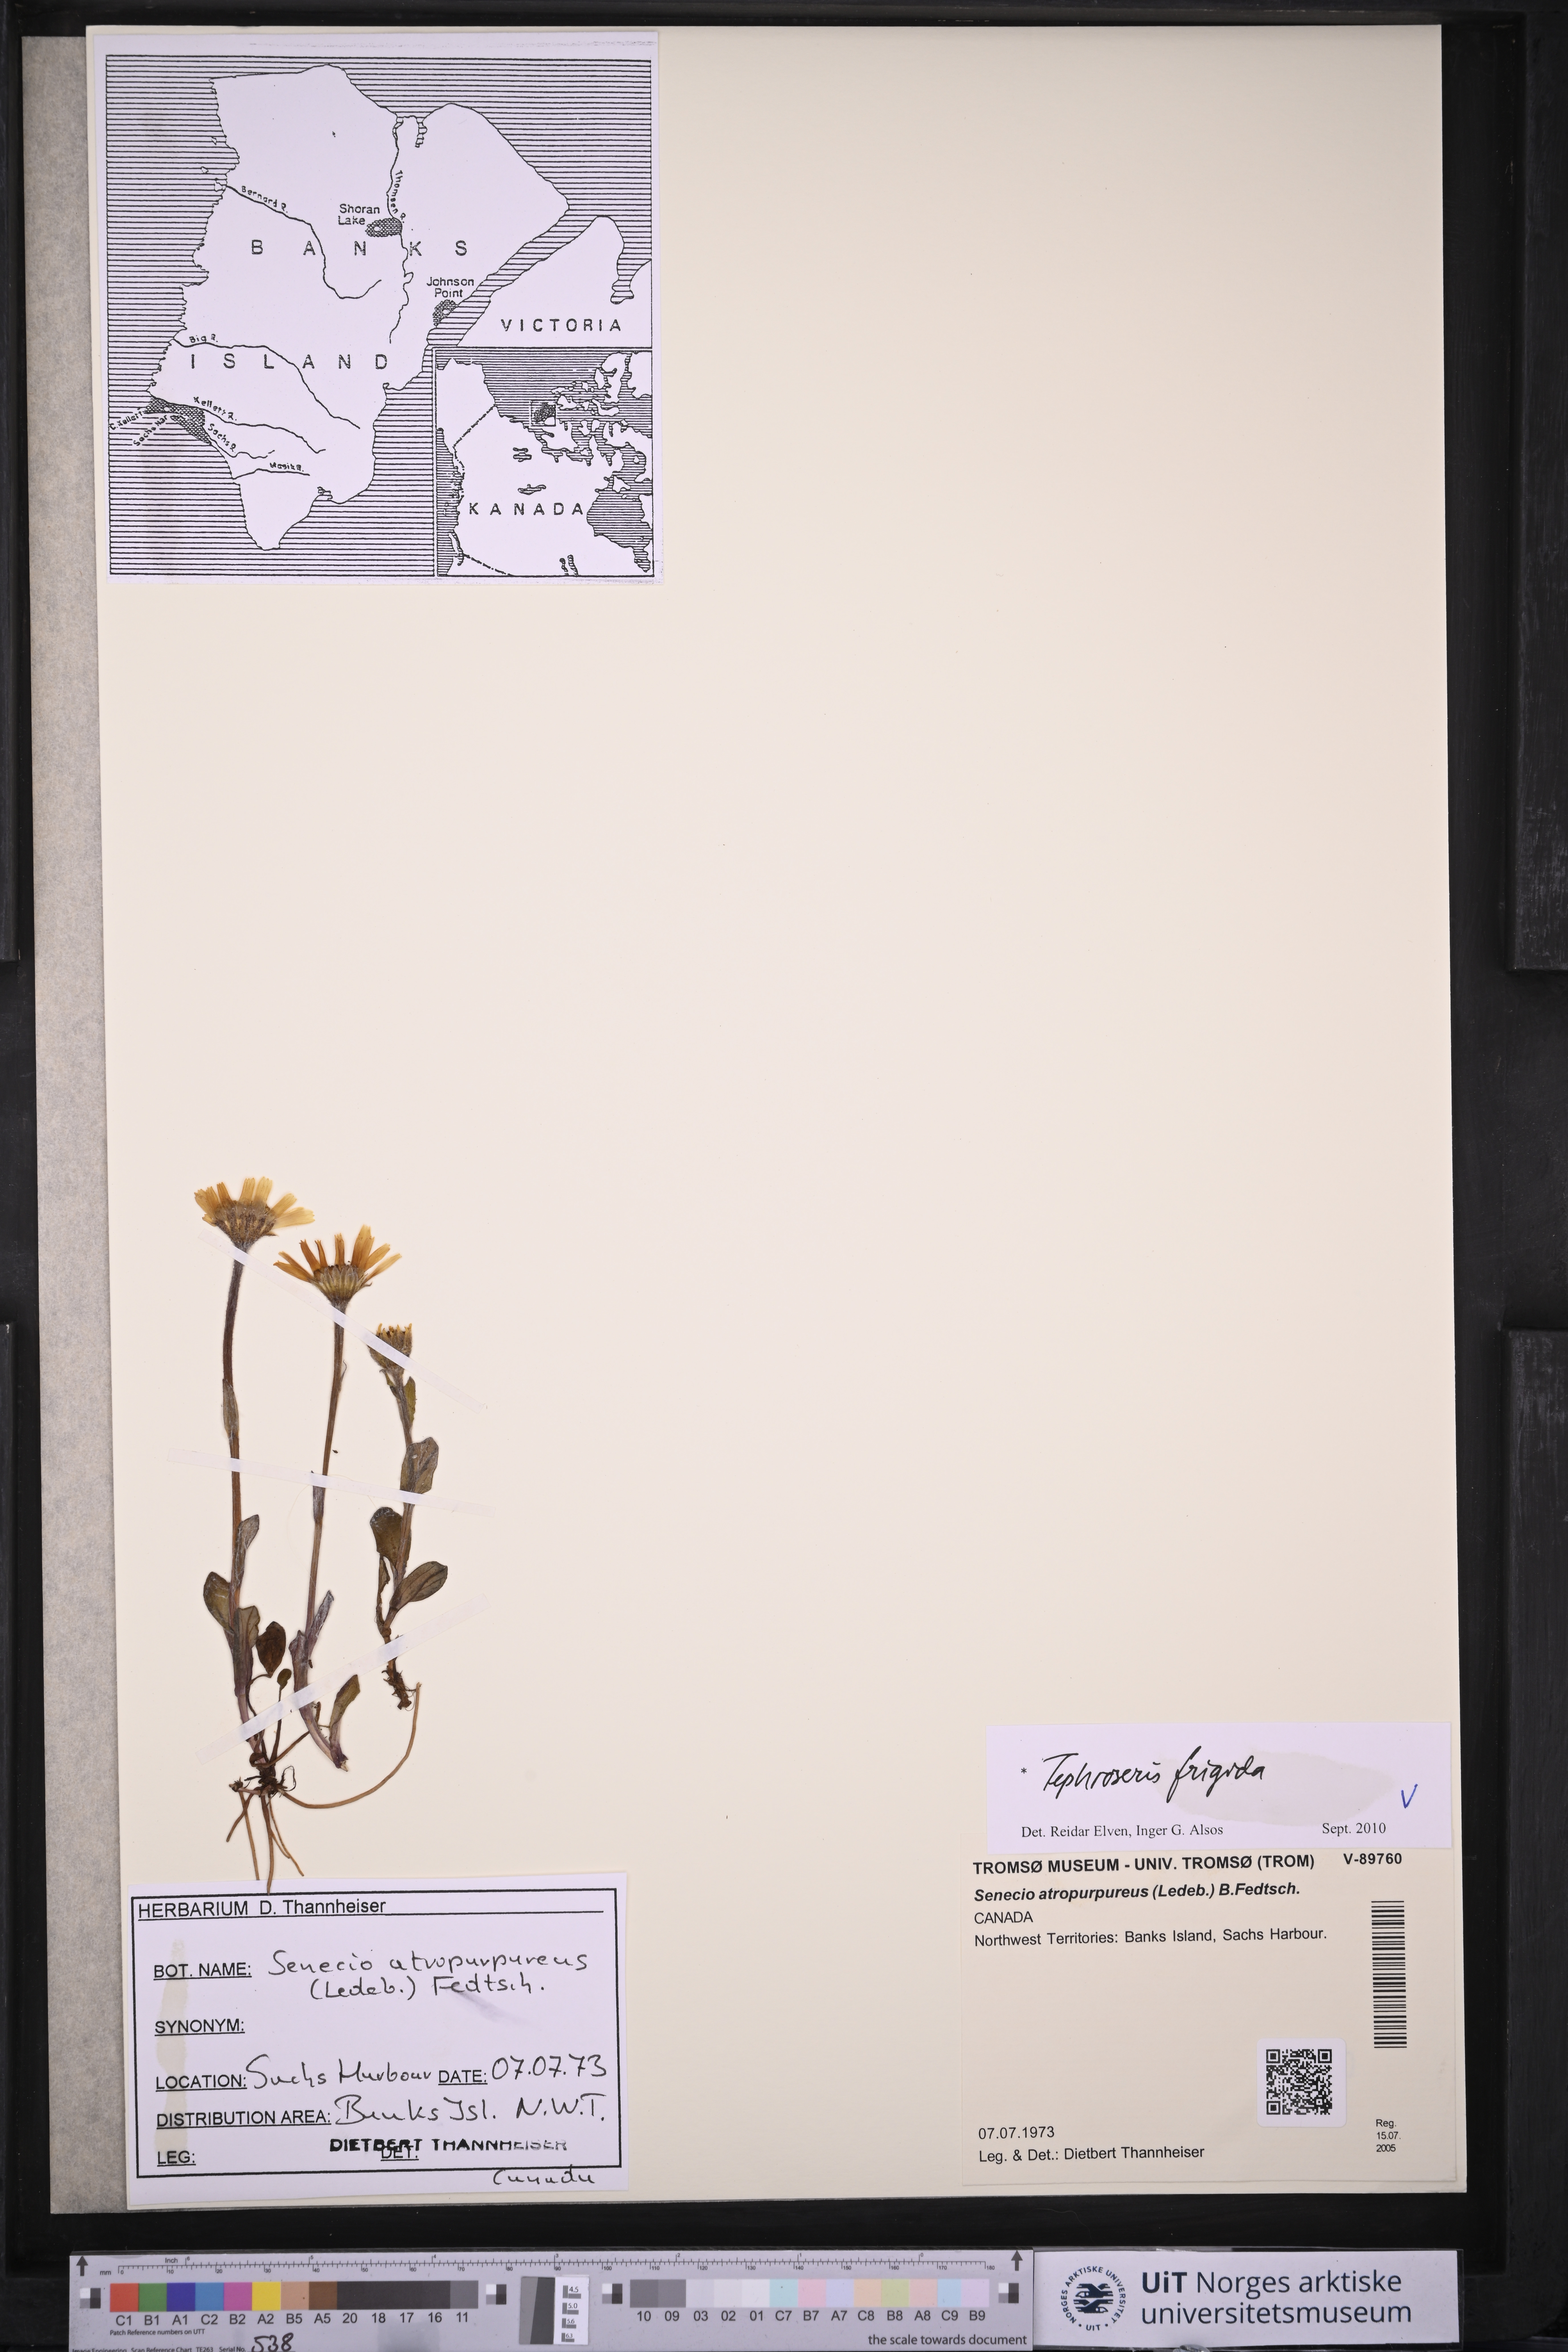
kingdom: Plantae
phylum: Tracheophyta
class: Magnoliopsida
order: Asterales
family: Asteraceae
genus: Tephroseris
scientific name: Tephroseris frigida
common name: Arctic groundsel
